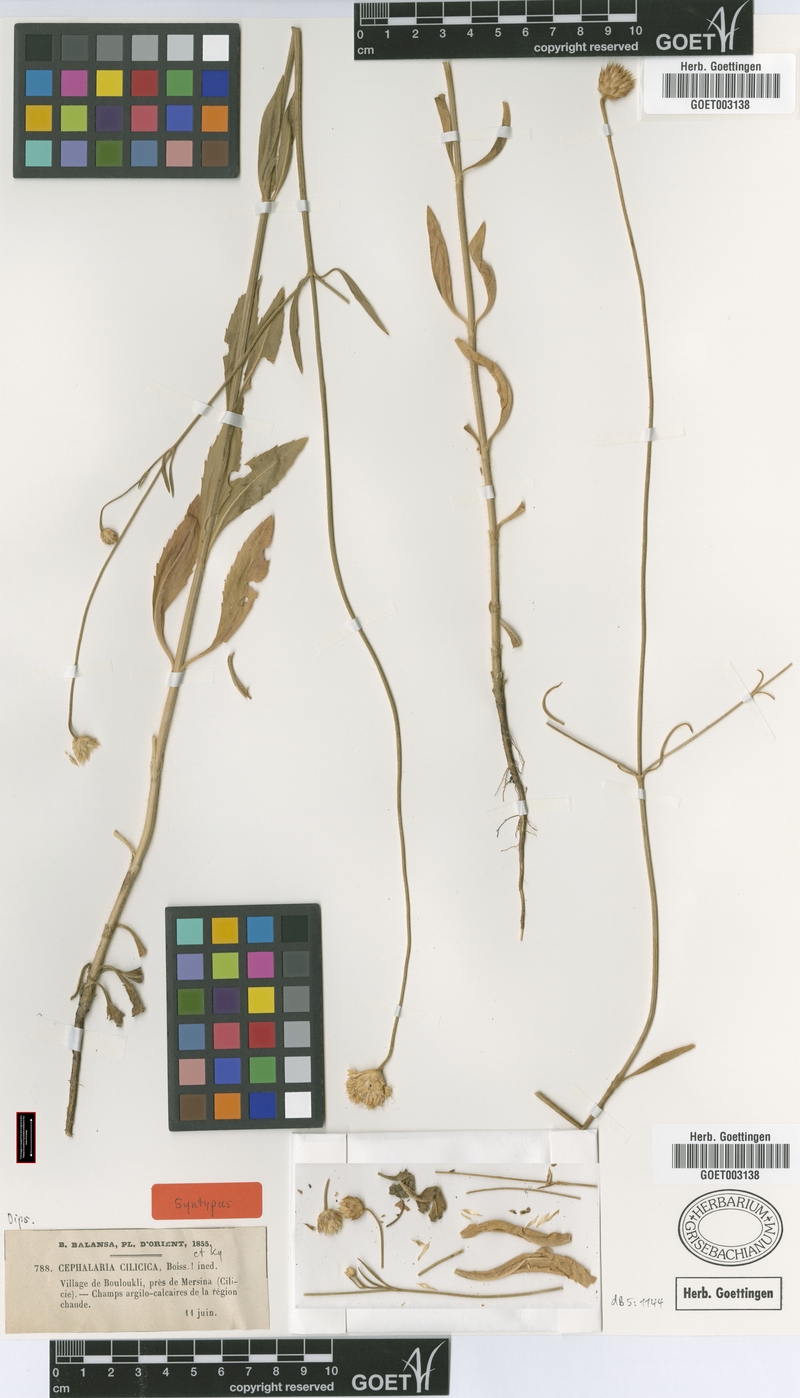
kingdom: Plantae
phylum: Tracheophyta
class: Magnoliopsida
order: Dipsacales
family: Caprifoliaceae
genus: Cephalaria
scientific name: Cephalaria cilicica
